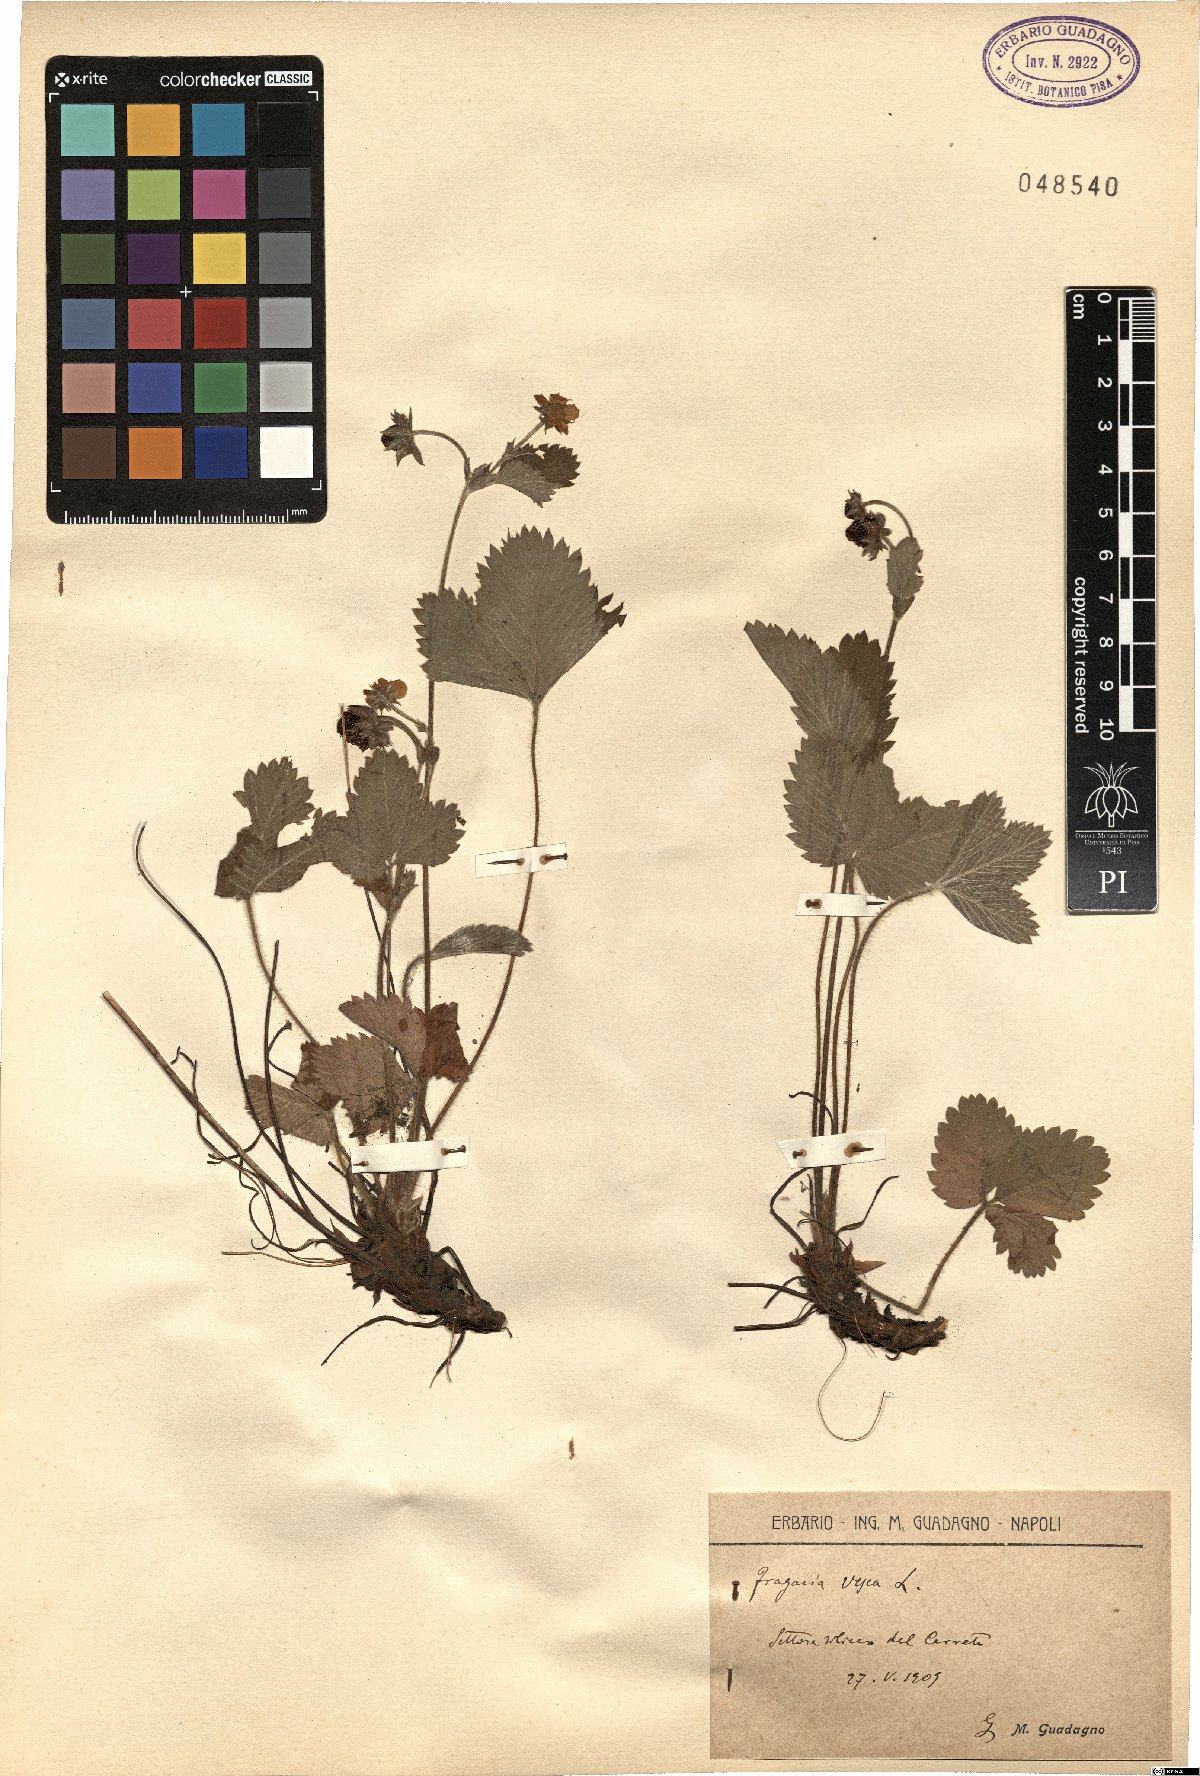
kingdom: Plantae
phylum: Tracheophyta
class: Magnoliopsida
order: Rosales
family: Rosaceae
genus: Fragaria
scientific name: Fragaria vesca
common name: Wild strawberry
